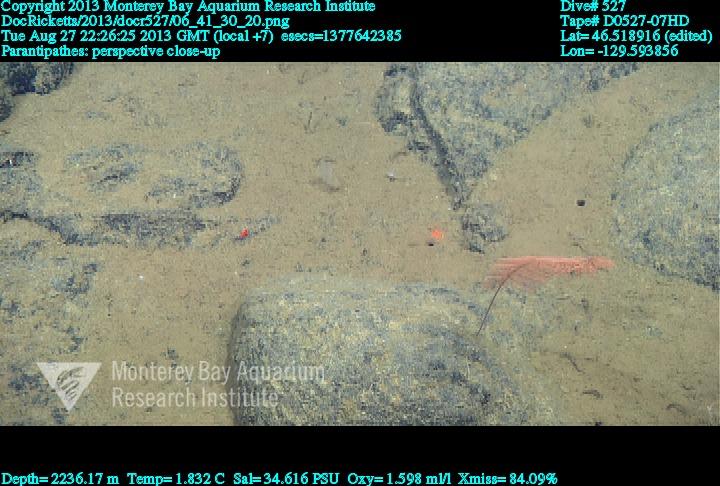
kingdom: Animalia
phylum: Cnidaria
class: Anthozoa
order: Antipatharia
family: Schizopathidae
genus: Parantipathes
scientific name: Parantipathes
